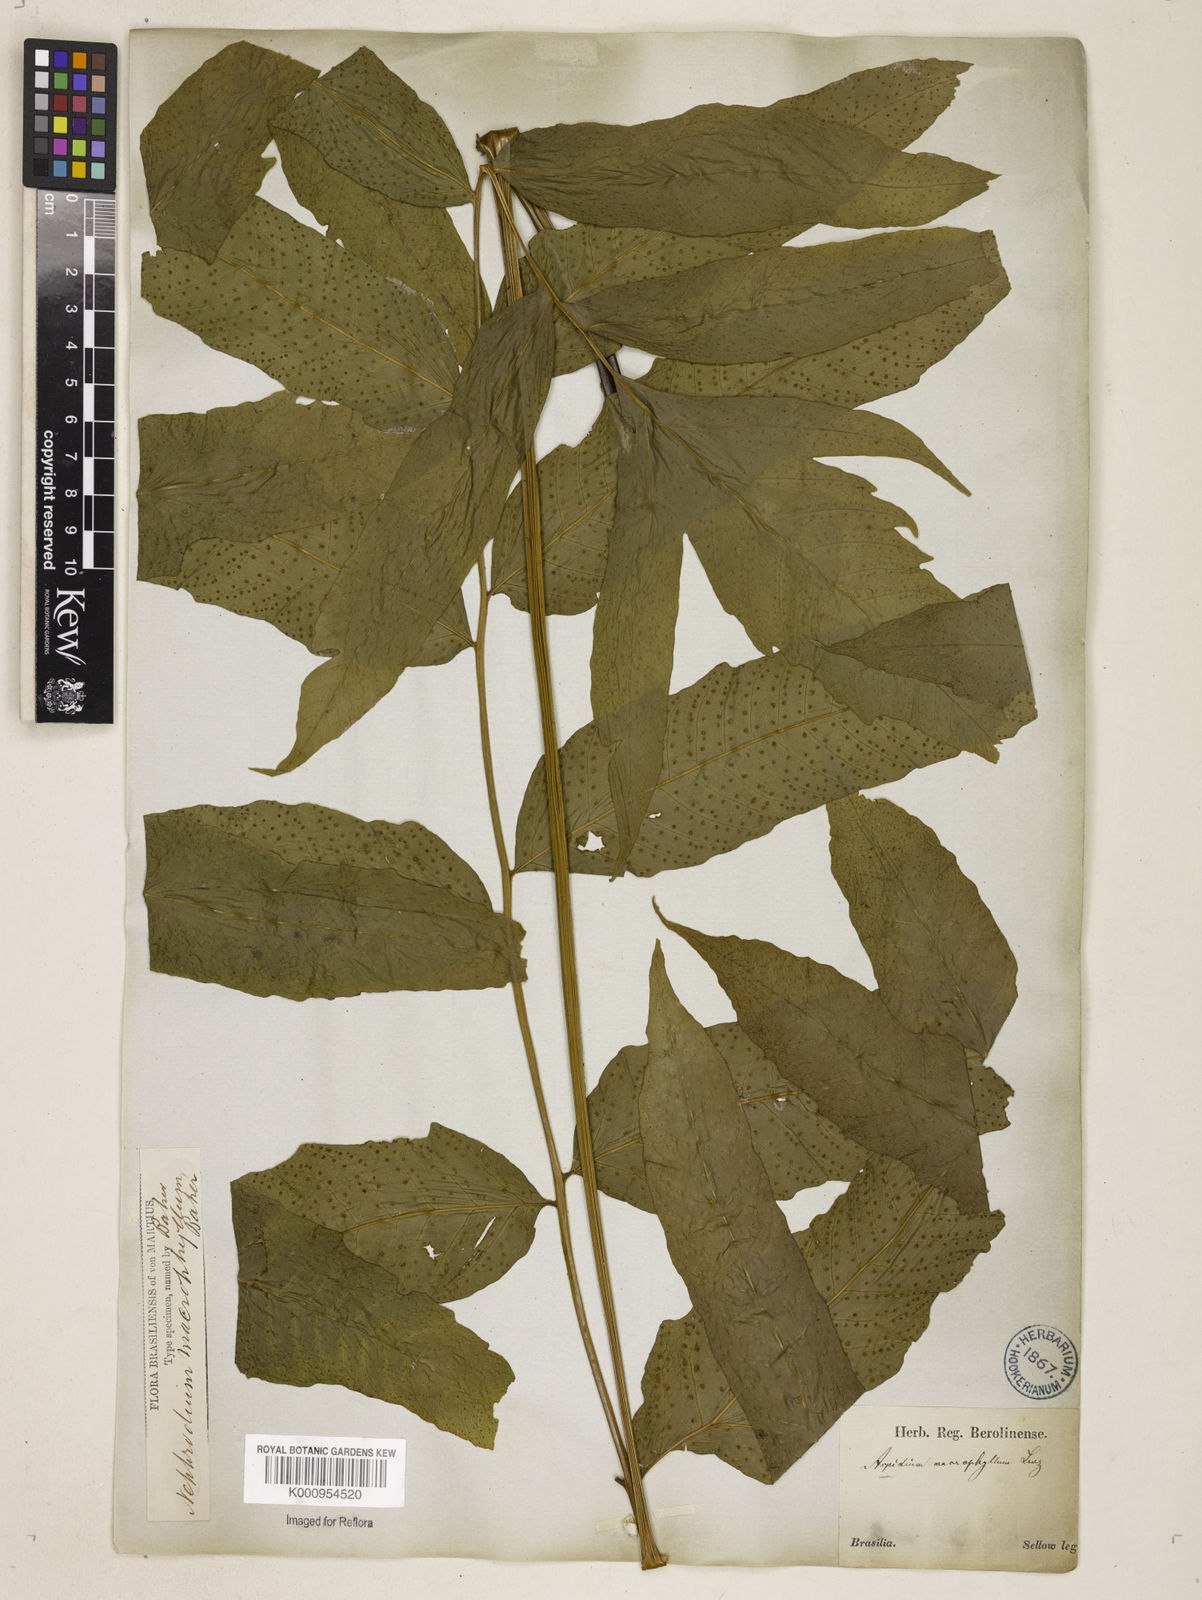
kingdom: Plantae
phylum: Tracheophyta
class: Polypodiopsida
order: Polypodiales
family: Tectariaceae
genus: Tectaria
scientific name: Tectaria incisa
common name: Incised halberd fern
